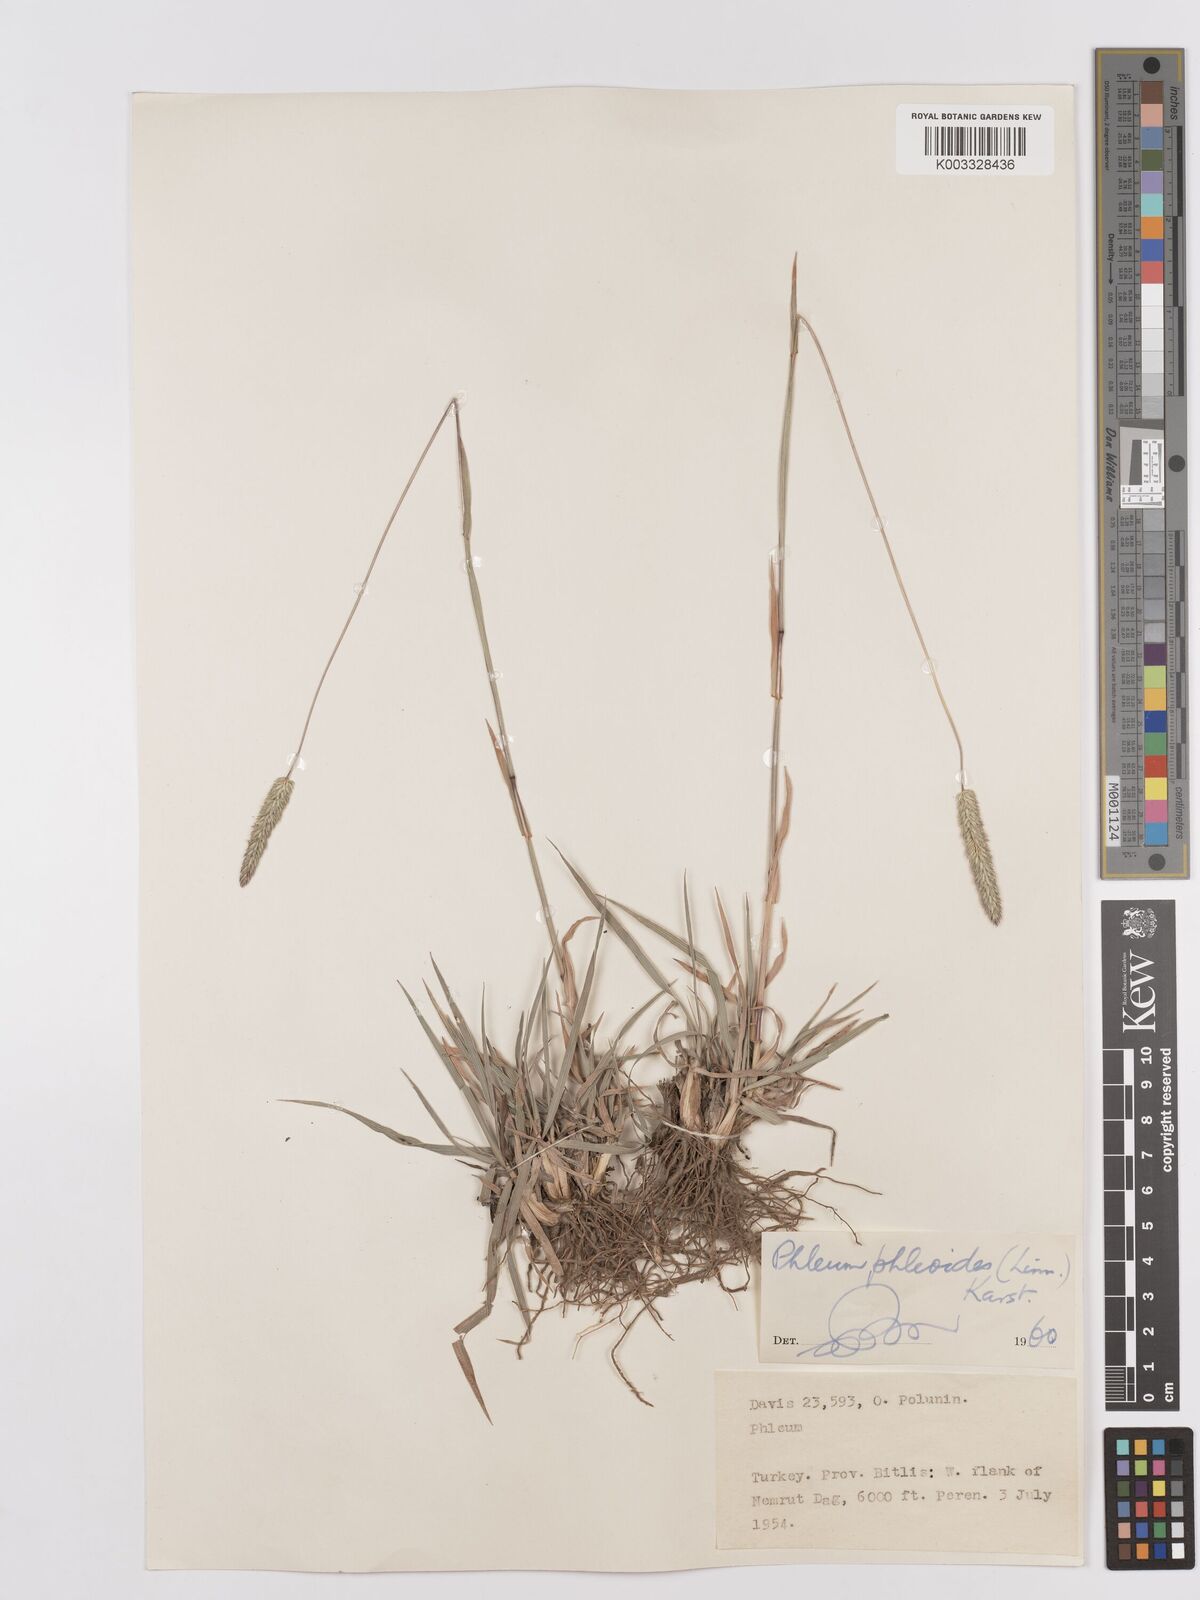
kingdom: Plantae
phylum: Tracheophyta
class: Liliopsida
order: Poales
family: Poaceae
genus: Phleum
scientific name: Phleum phleoides
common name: Purple-stem cat's-tail
